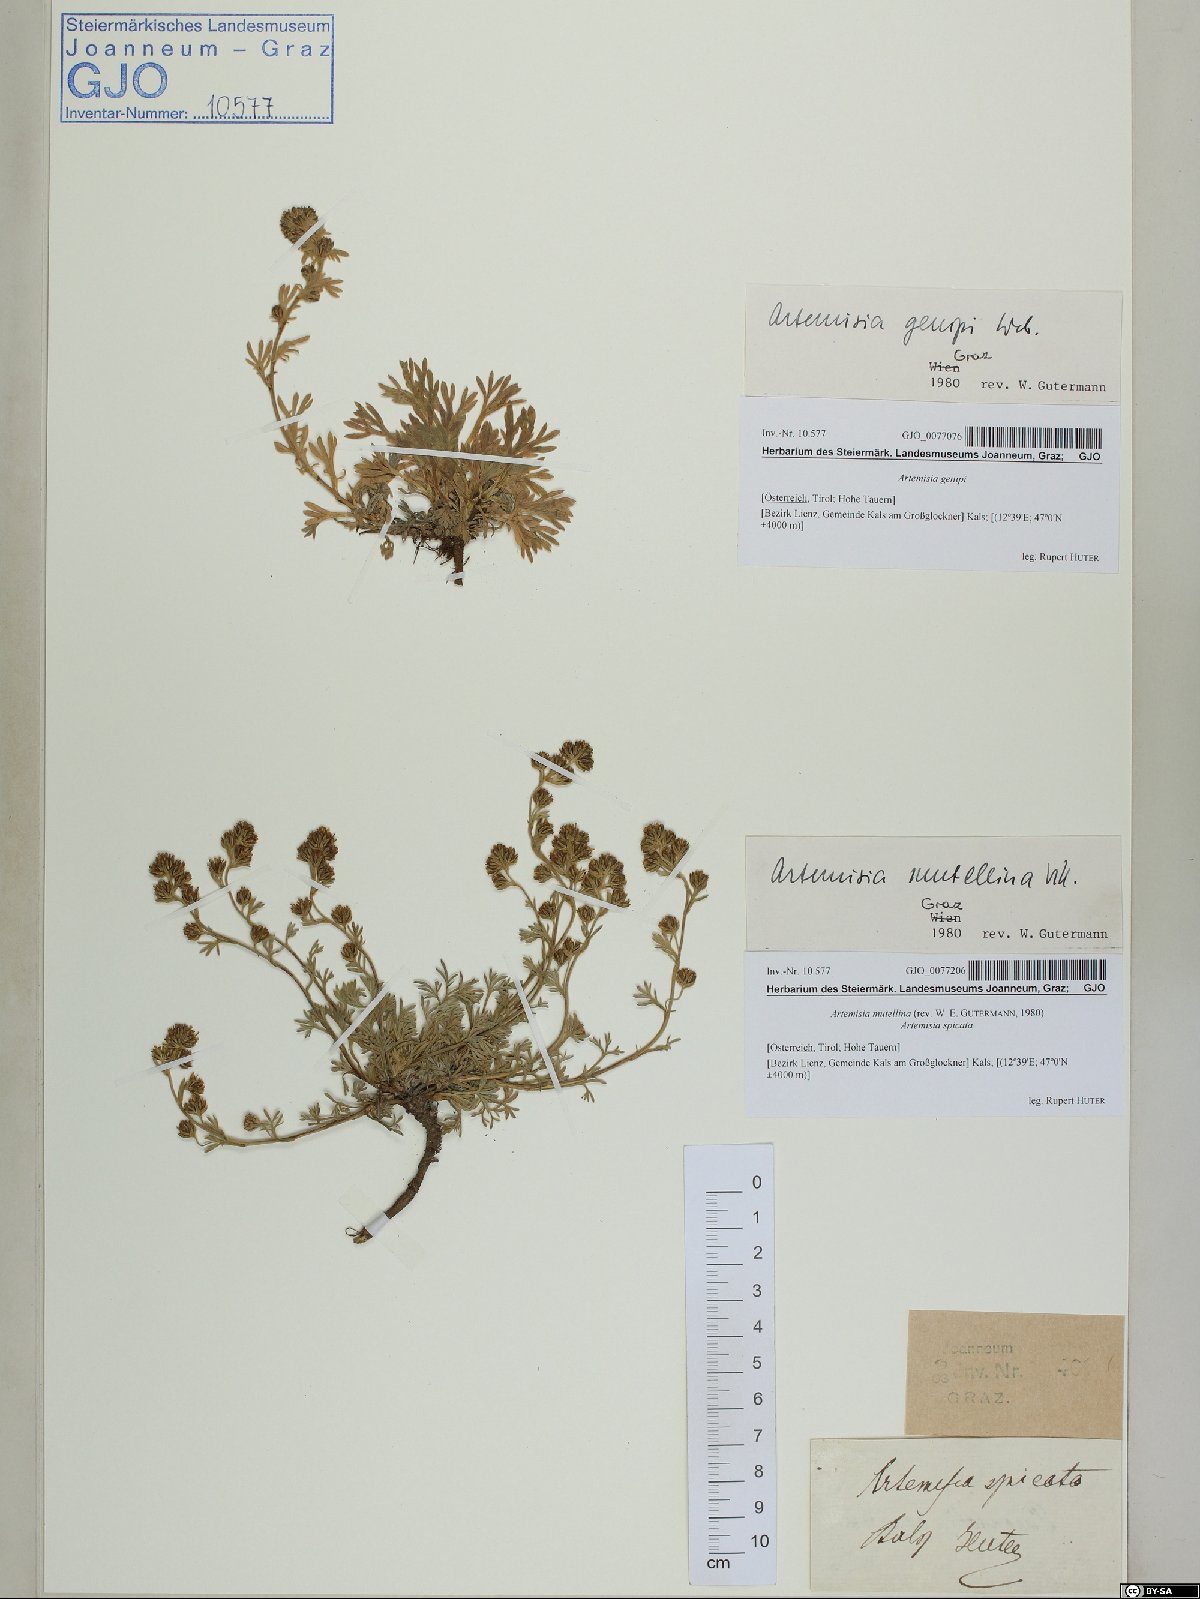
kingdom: Plantae
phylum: Tracheophyta
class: Magnoliopsida
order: Asterales
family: Asteraceae
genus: Artemisia
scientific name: Artemisia mutellina
